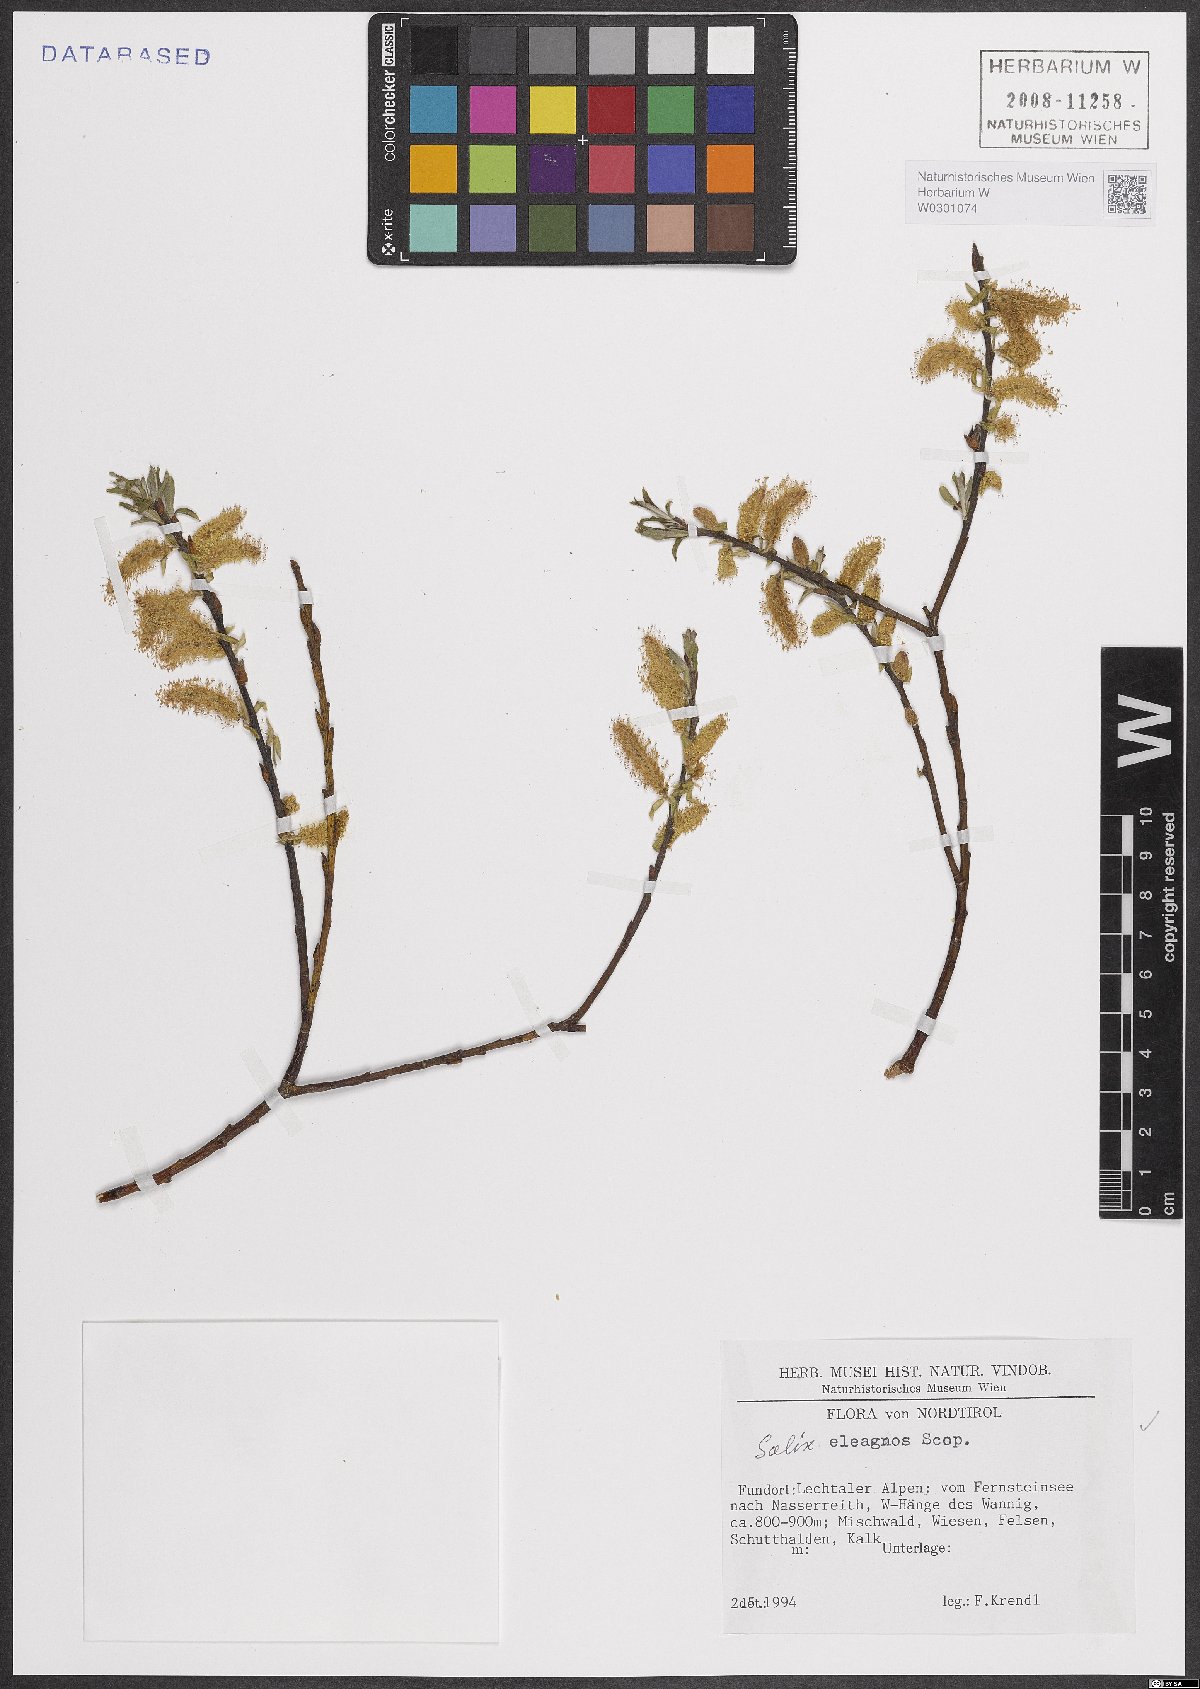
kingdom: Plantae
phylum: Tracheophyta
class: Magnoliopsida
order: Malpighiales
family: Salicaceae
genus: Salix
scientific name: Salix eleagnos
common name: Elaeagnus willow
